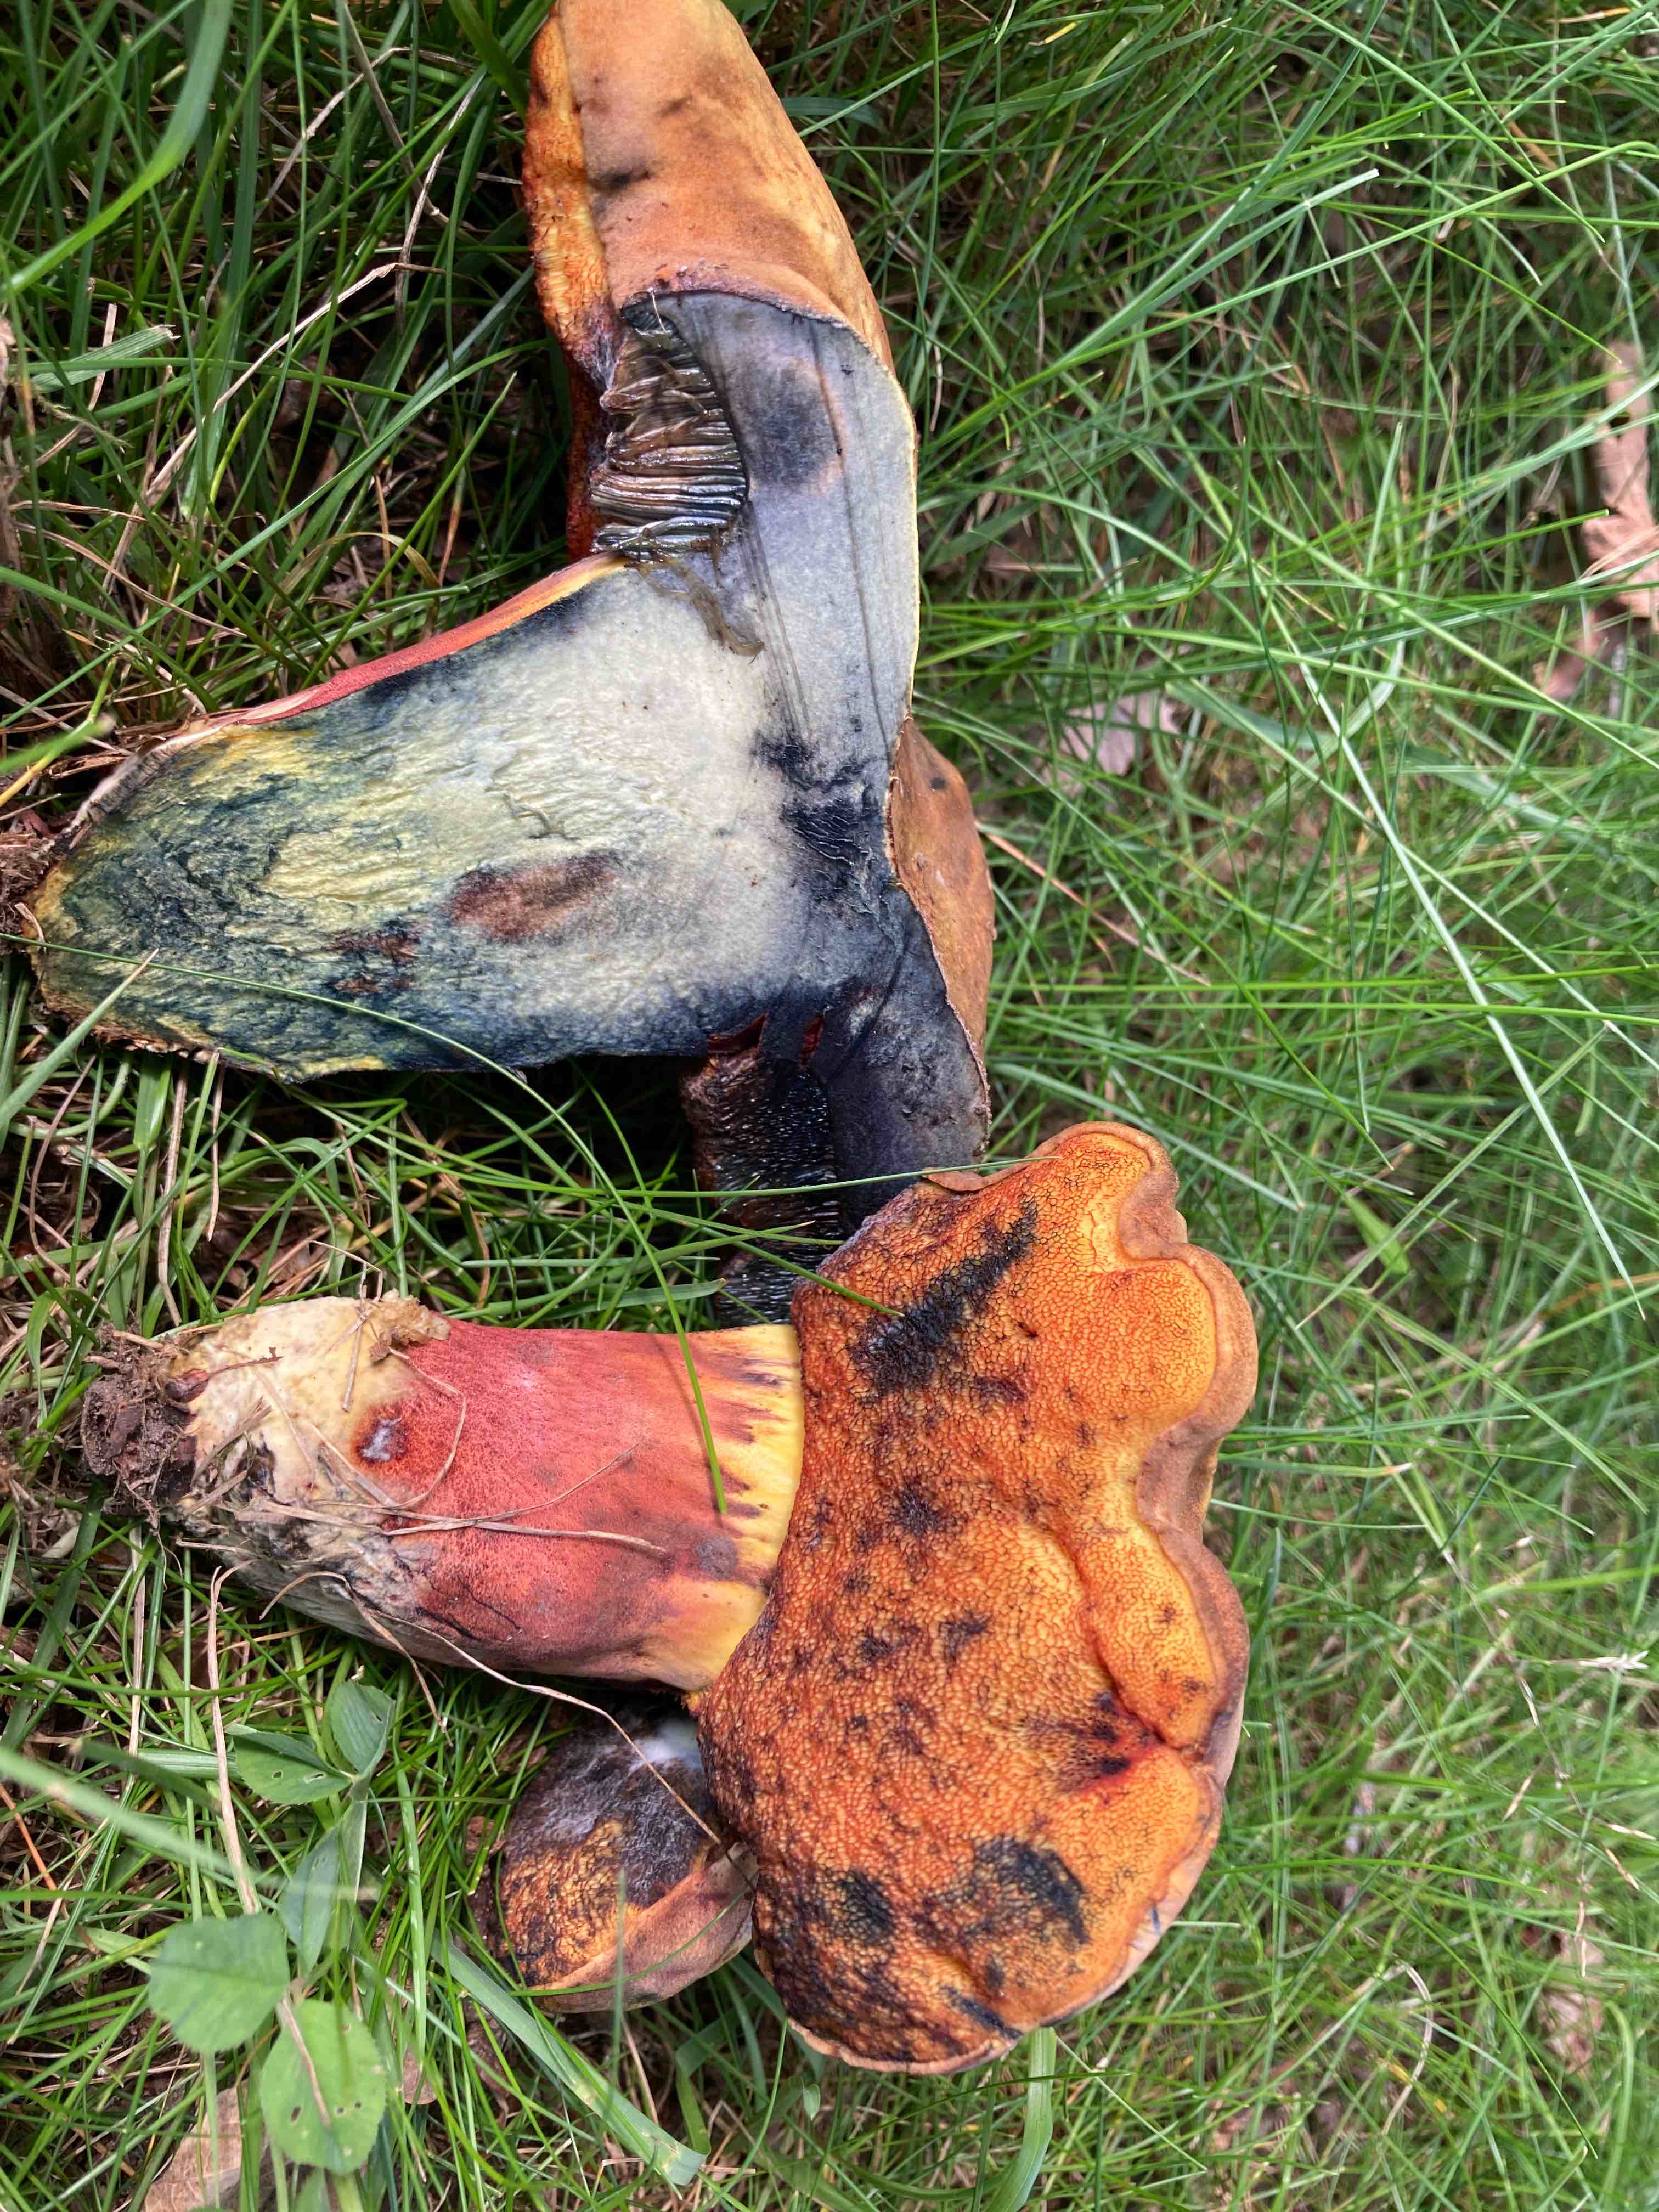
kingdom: Fungi
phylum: Basidiomycota
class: Agaricomycetes
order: Boletales
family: Boletaceae
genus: Neoboletus
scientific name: Neoboletus xanthopus
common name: finprikket indigorørhat
